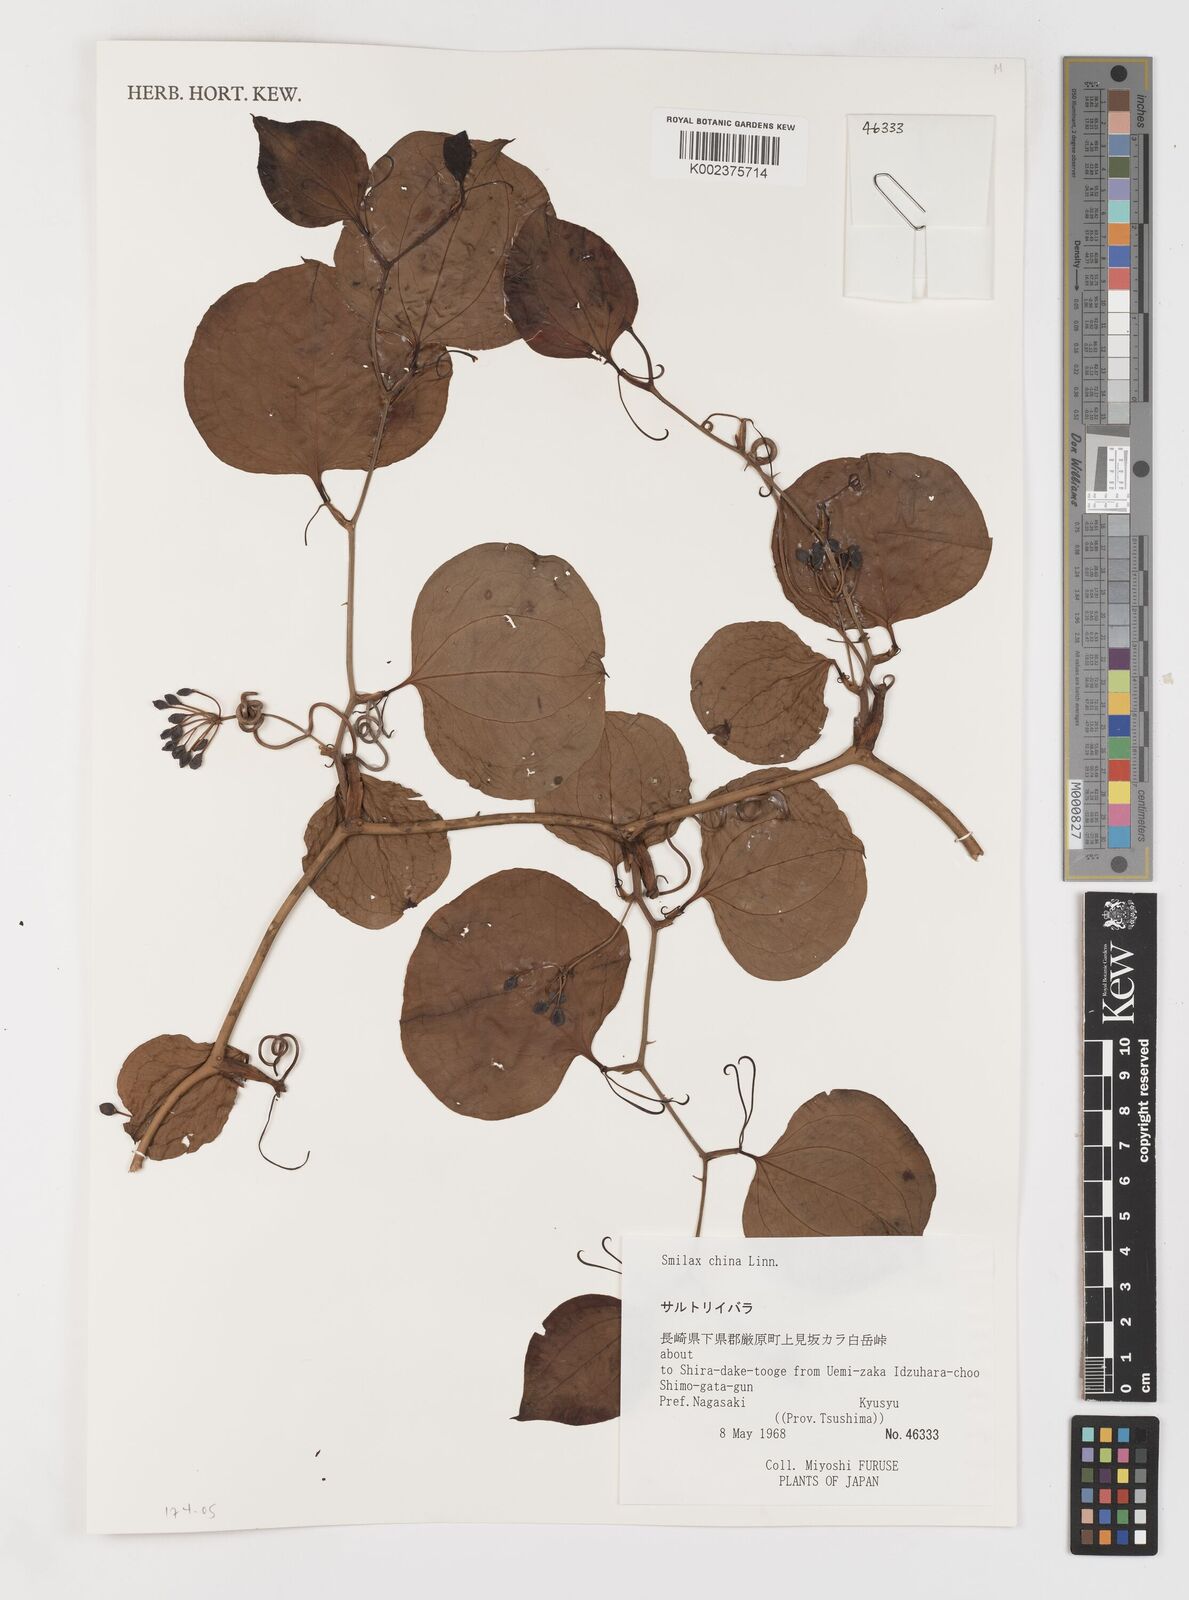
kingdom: Plantae
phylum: Tracheophyta
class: Liliopsida
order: Liliales
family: Smilacaceae
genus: Smilax
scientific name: Smilax china
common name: Chinaroot
